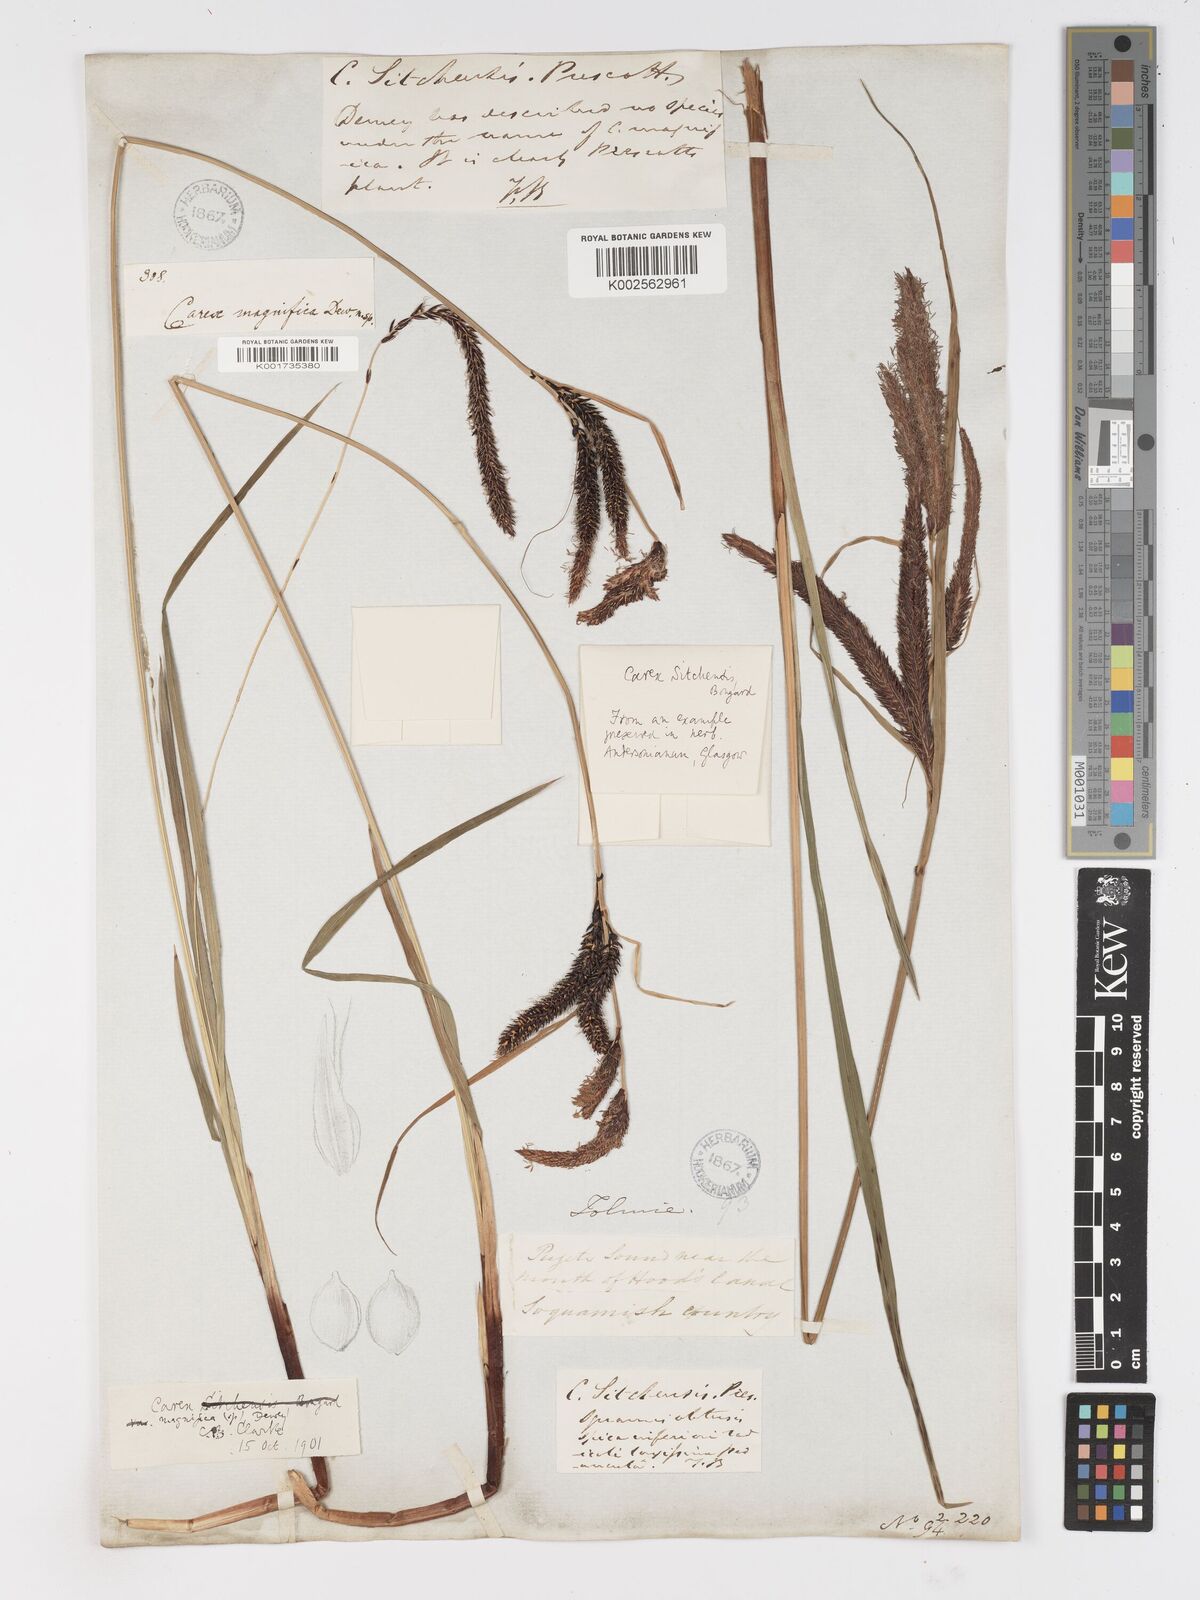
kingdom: Plantae
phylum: Tracheophyta
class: Liliopsida
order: Poales
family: Cyperaceae
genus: Carex
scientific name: Carex obnupta
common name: Slough sedge
